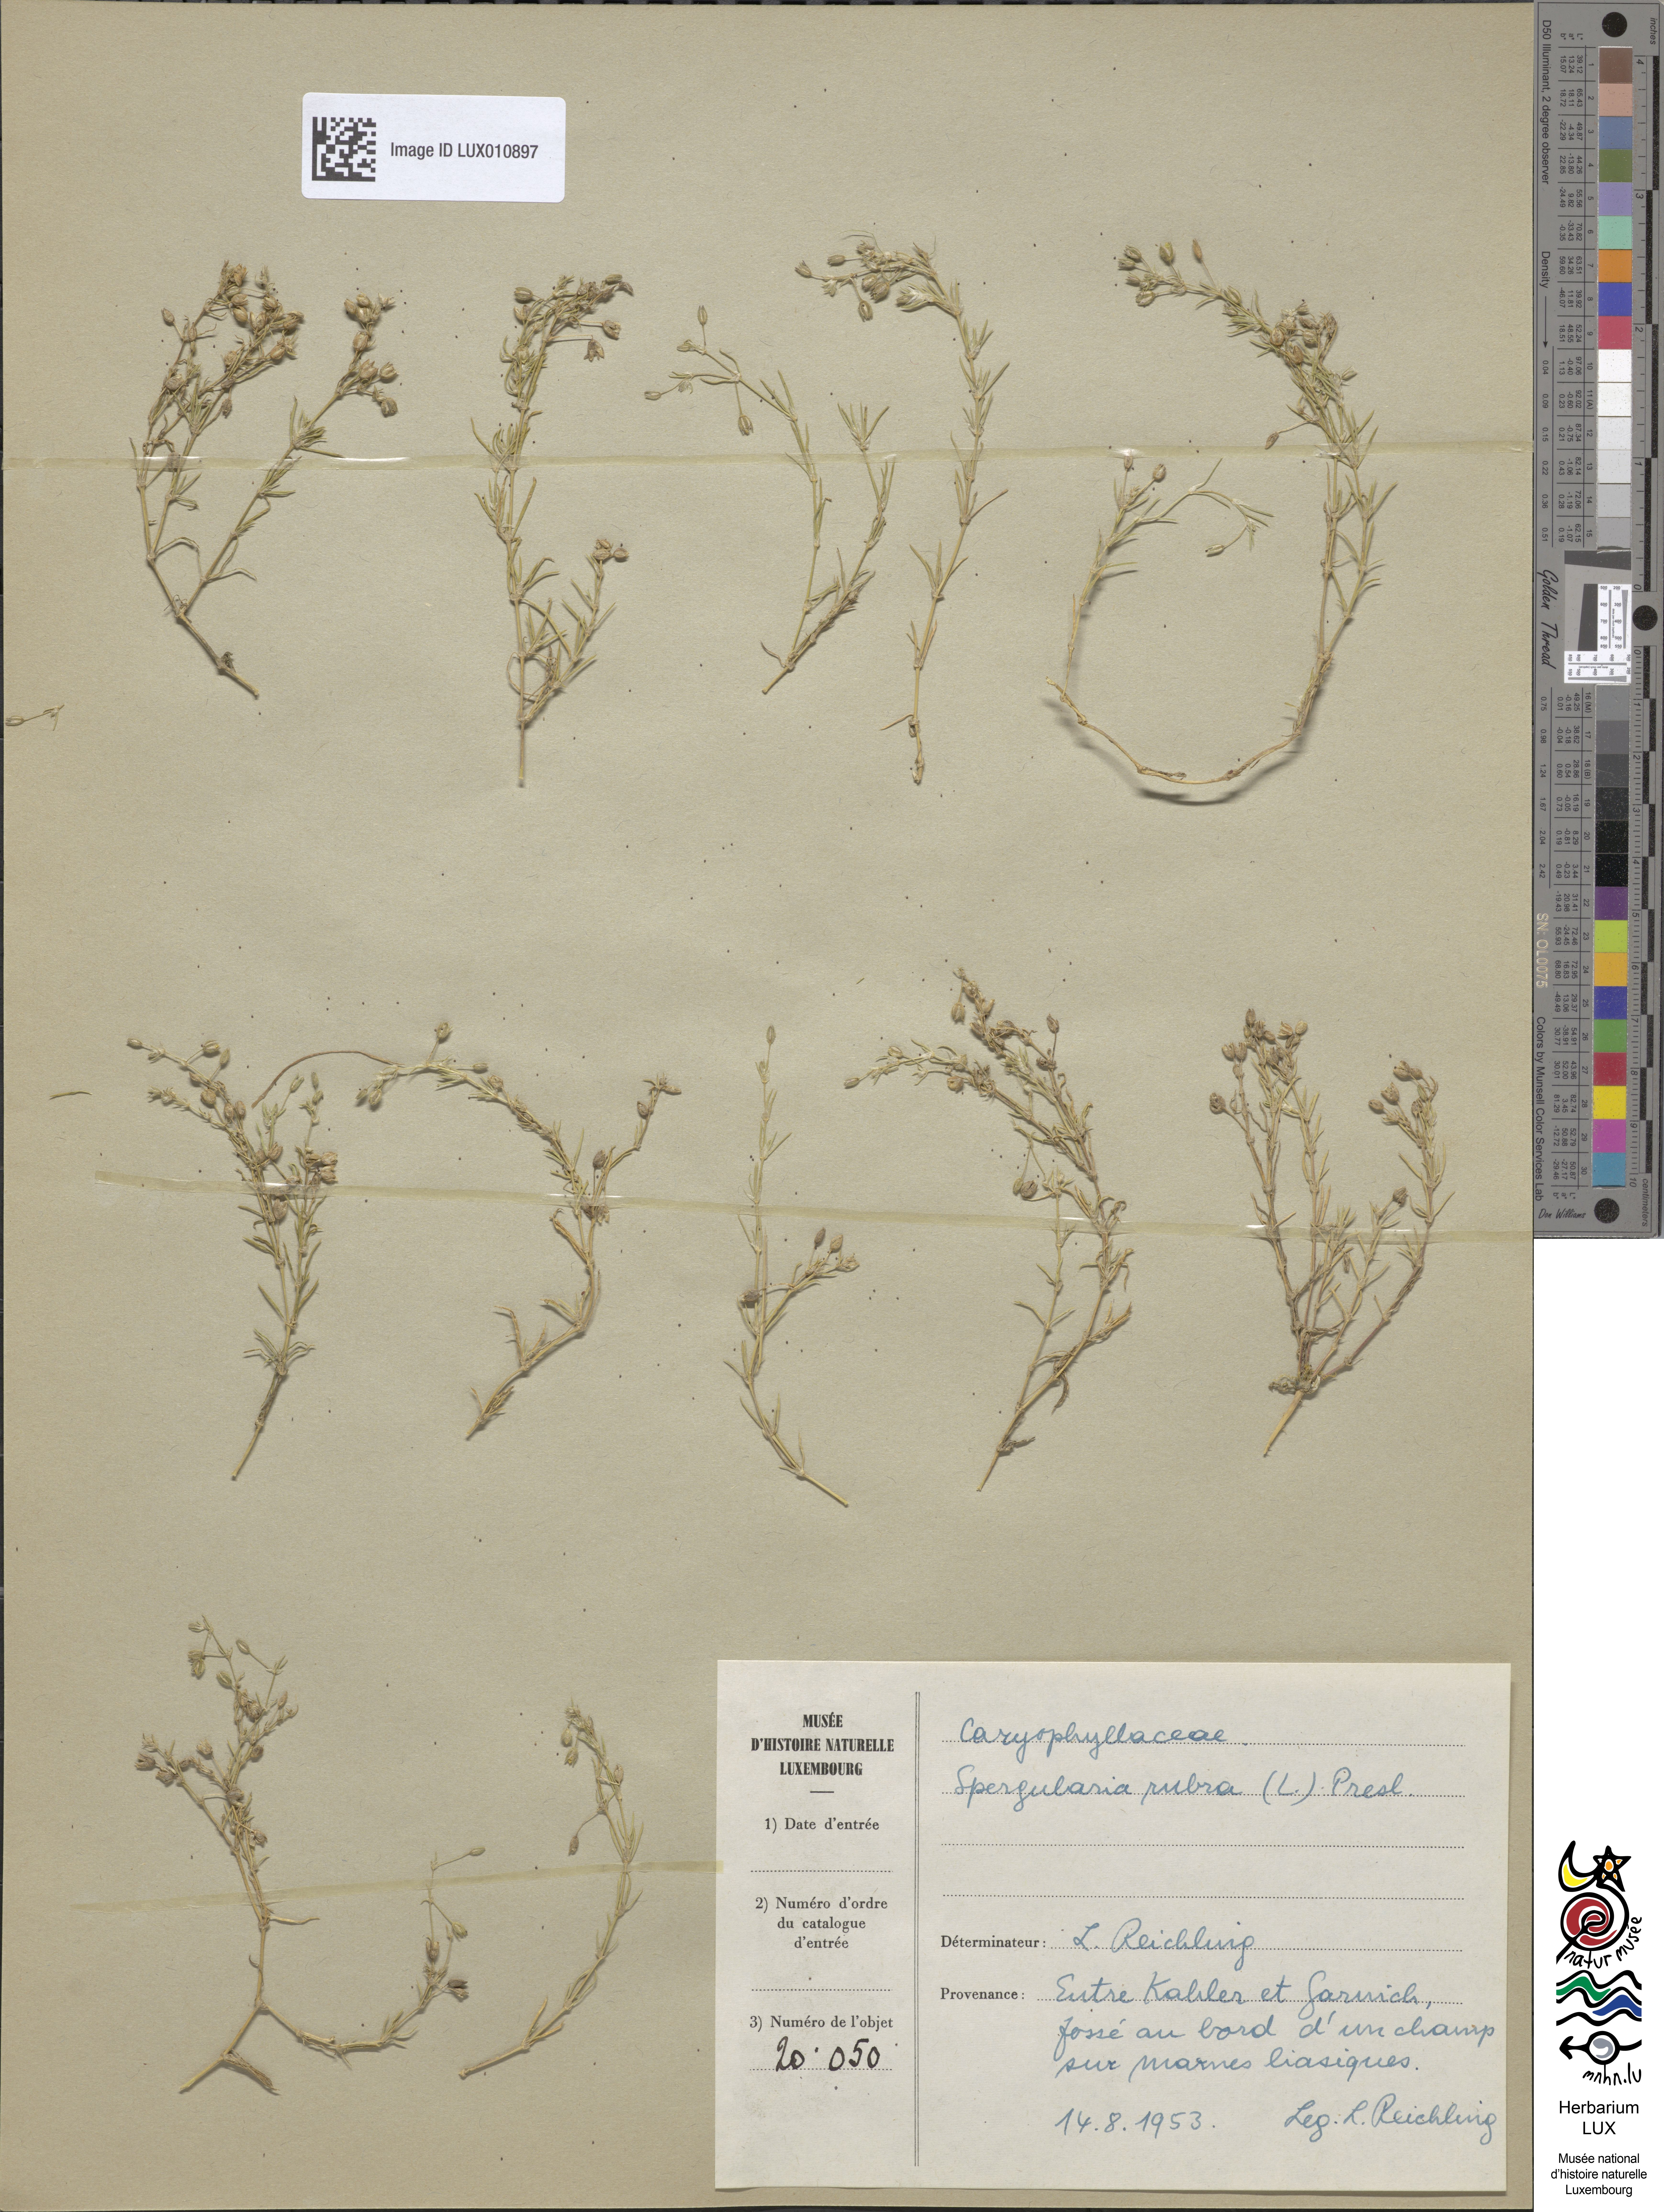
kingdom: Plantae
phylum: Tracheophyta
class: Magnoliopsida
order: Caryophyllales
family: Caryophyllaceae
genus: Spergularia
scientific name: Spergularia rubra
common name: Red sand-spurrey
